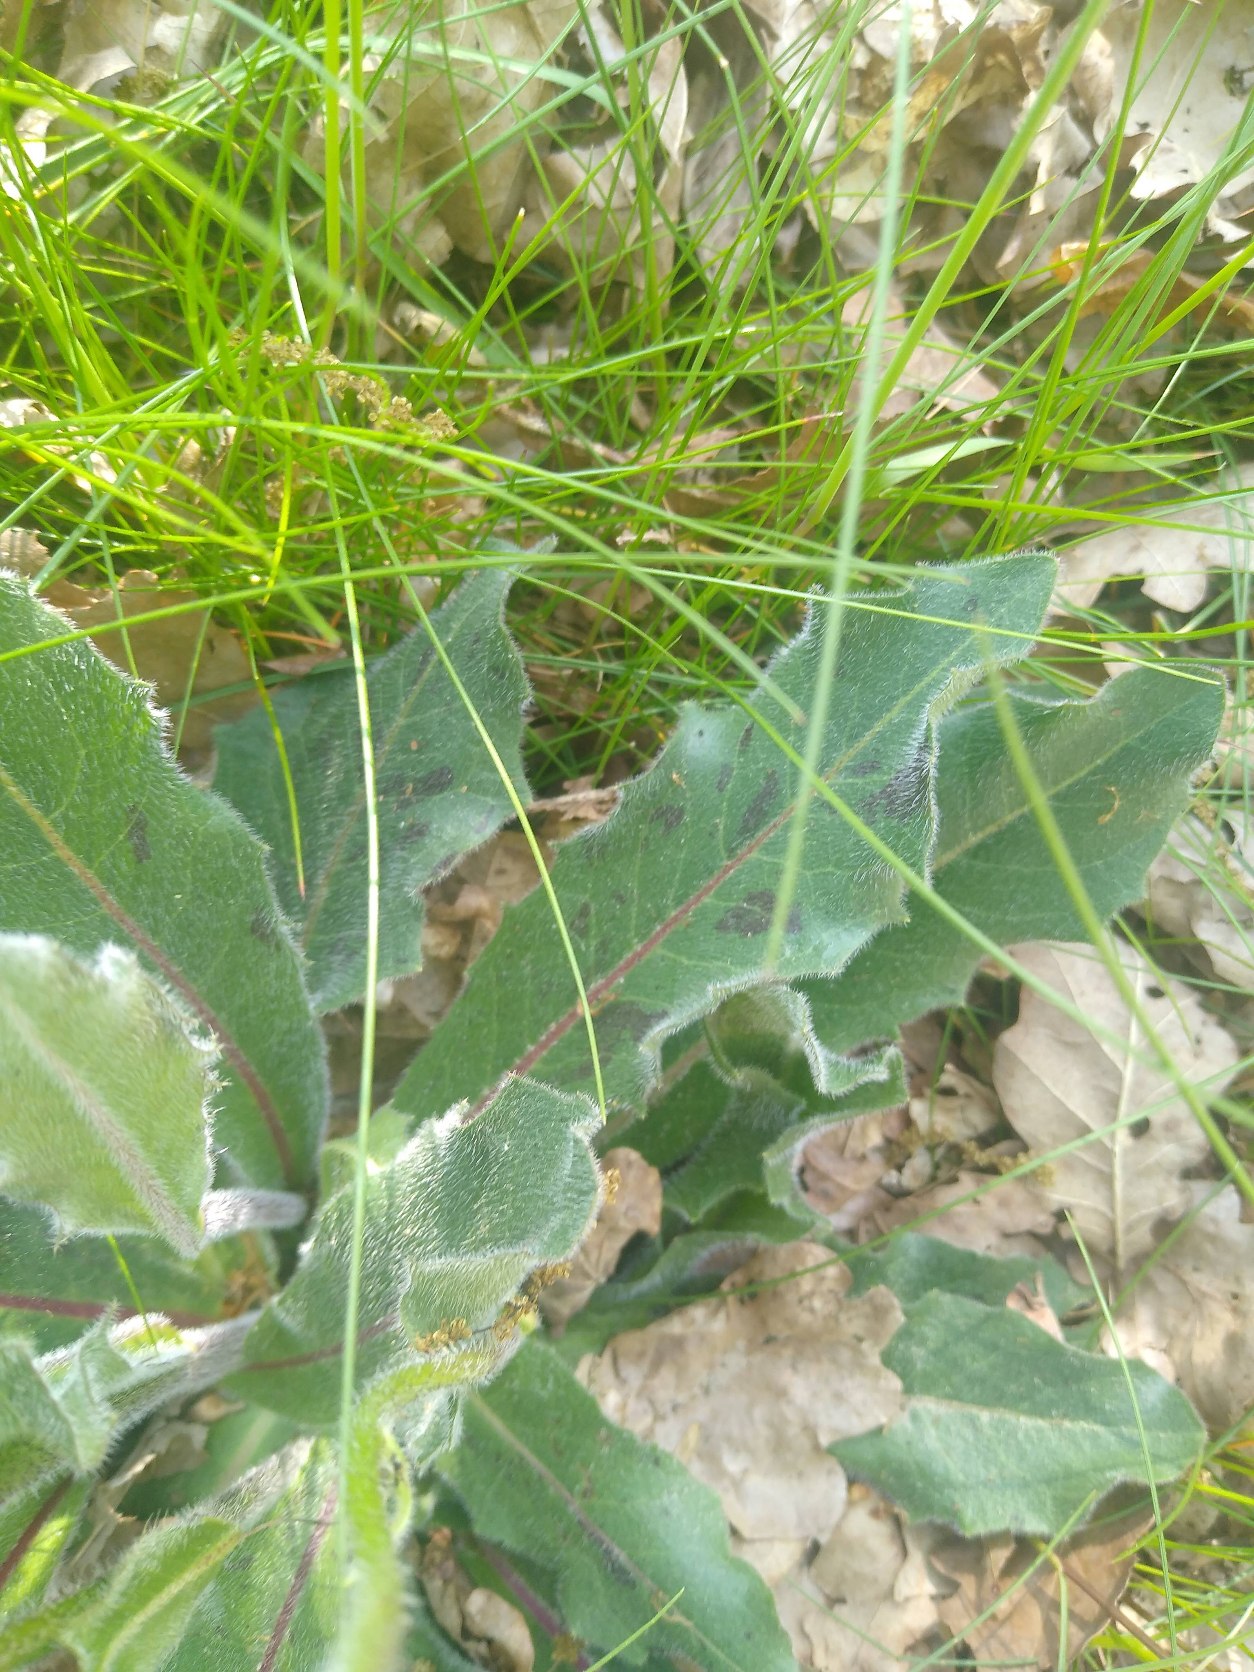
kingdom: Plantae
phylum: Tracheophyta
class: Magnoliopsida
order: Asterales
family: Asteraceae
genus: Trommsdorffia
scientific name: Trommsdorffia maculata
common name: Plettet kongepen
